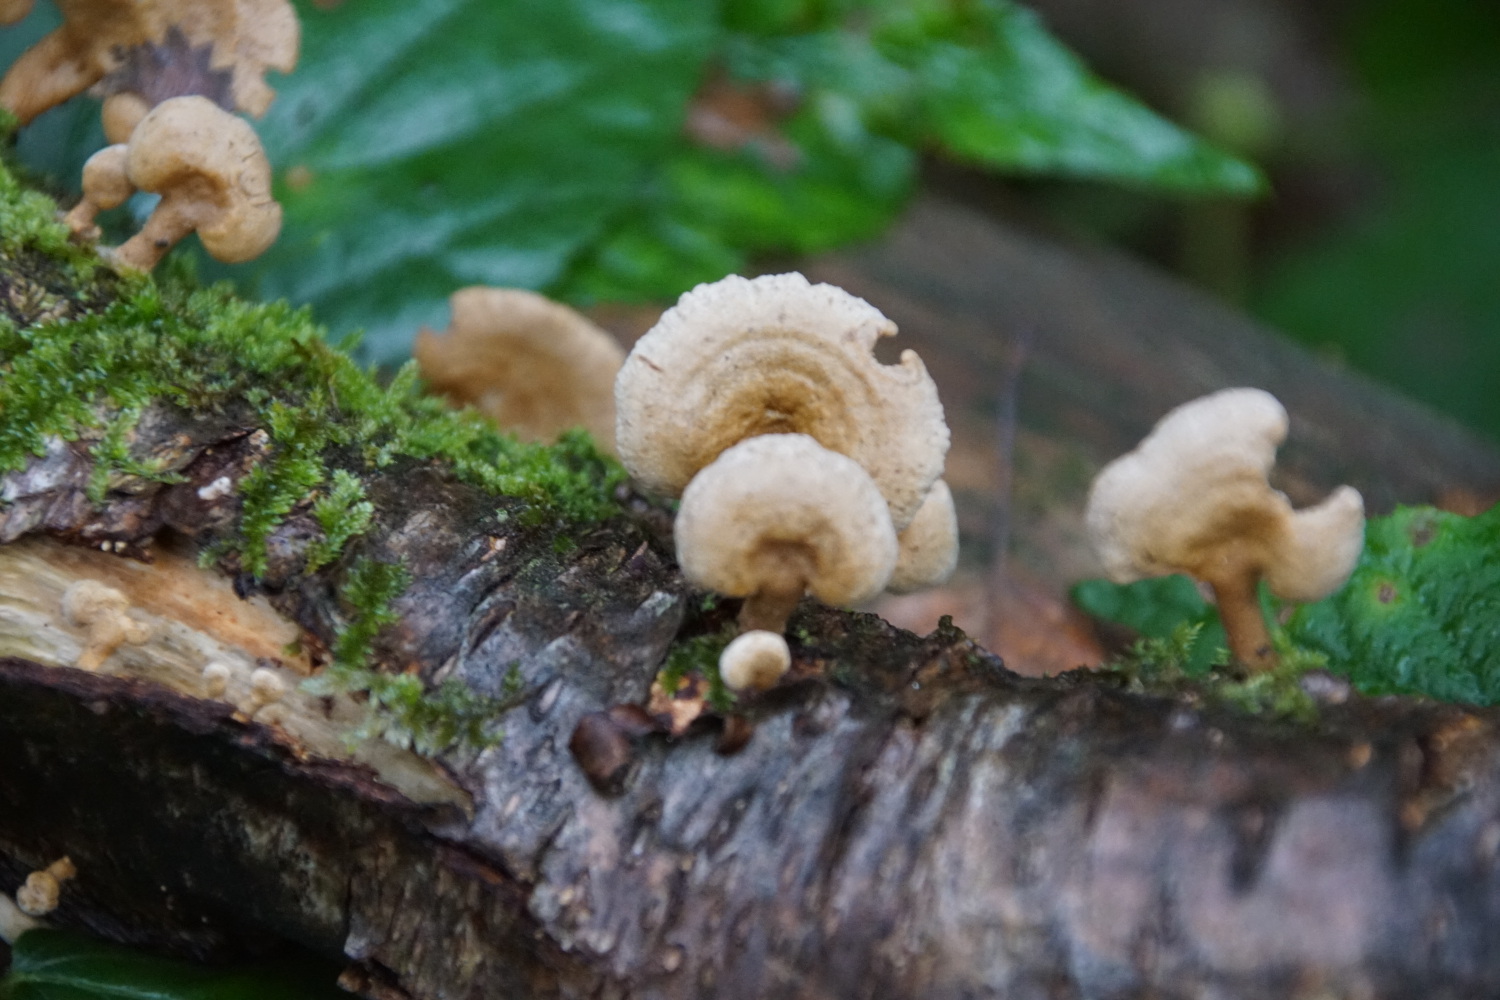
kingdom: Fungi
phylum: Basidiomycota
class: Agaricomycetes
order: Agaricales
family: Mycenaceae
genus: Panellus
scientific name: Panellus stipticus
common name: kliddet epaulethat
